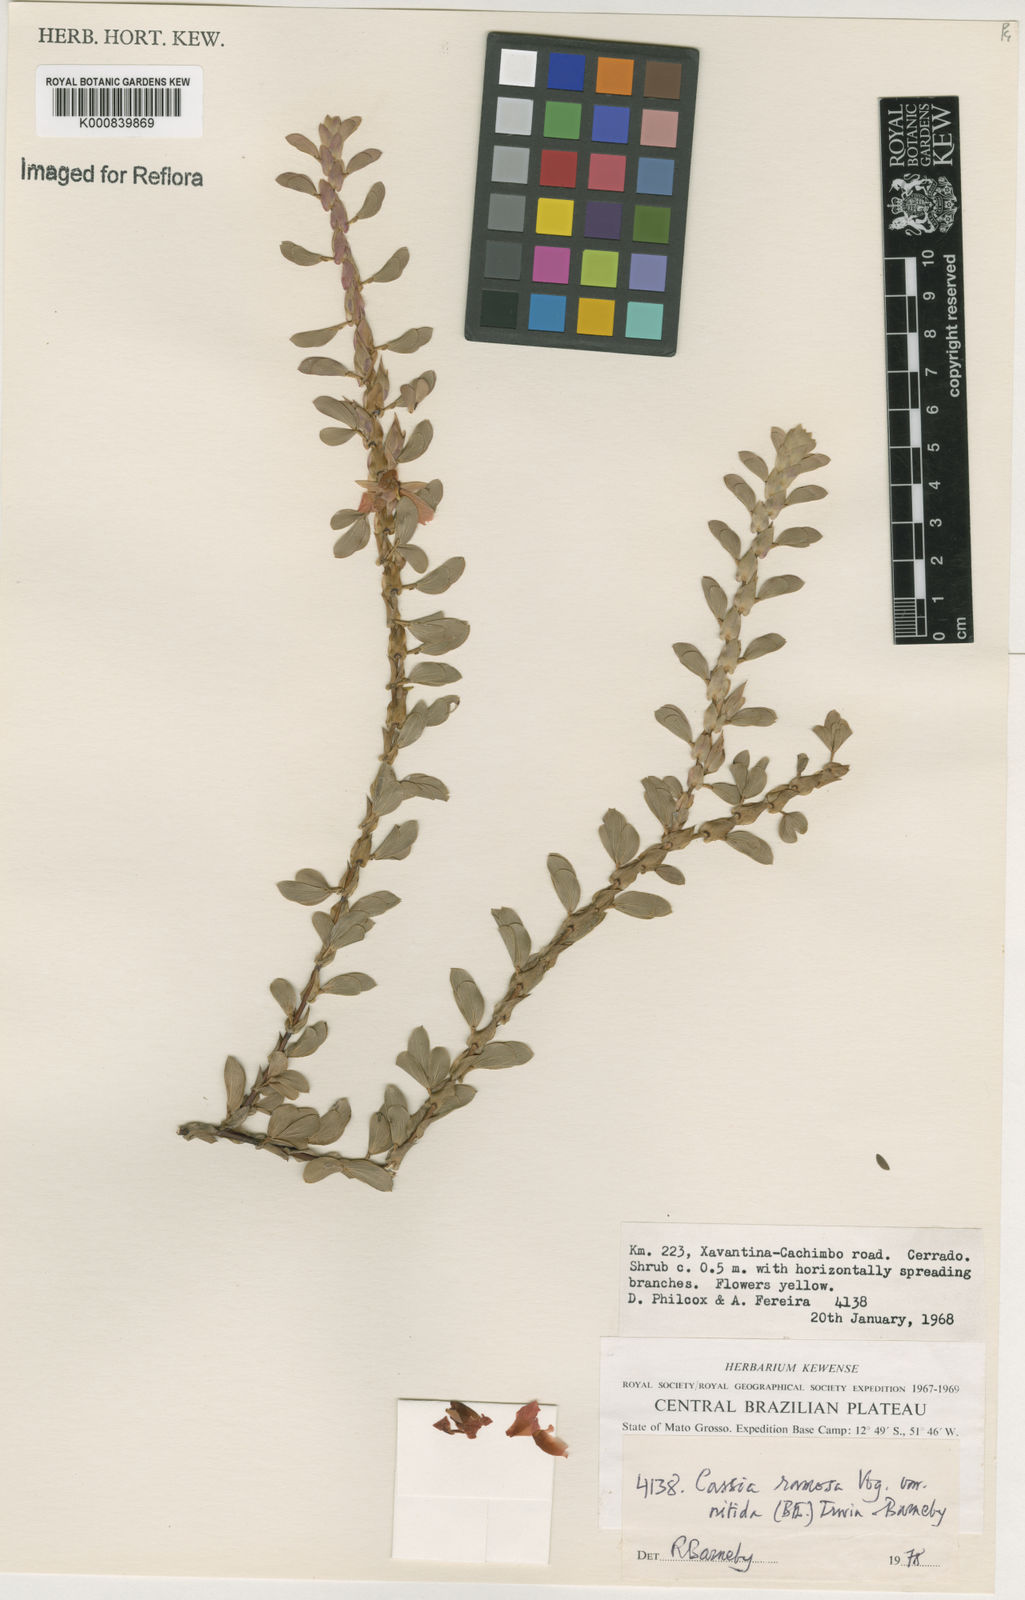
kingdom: Plantae
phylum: Tracheophyta
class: Magnoliopsida
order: Fabales
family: Fabaceae
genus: Chamaecrista
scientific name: Chamaecrista desvauxii
